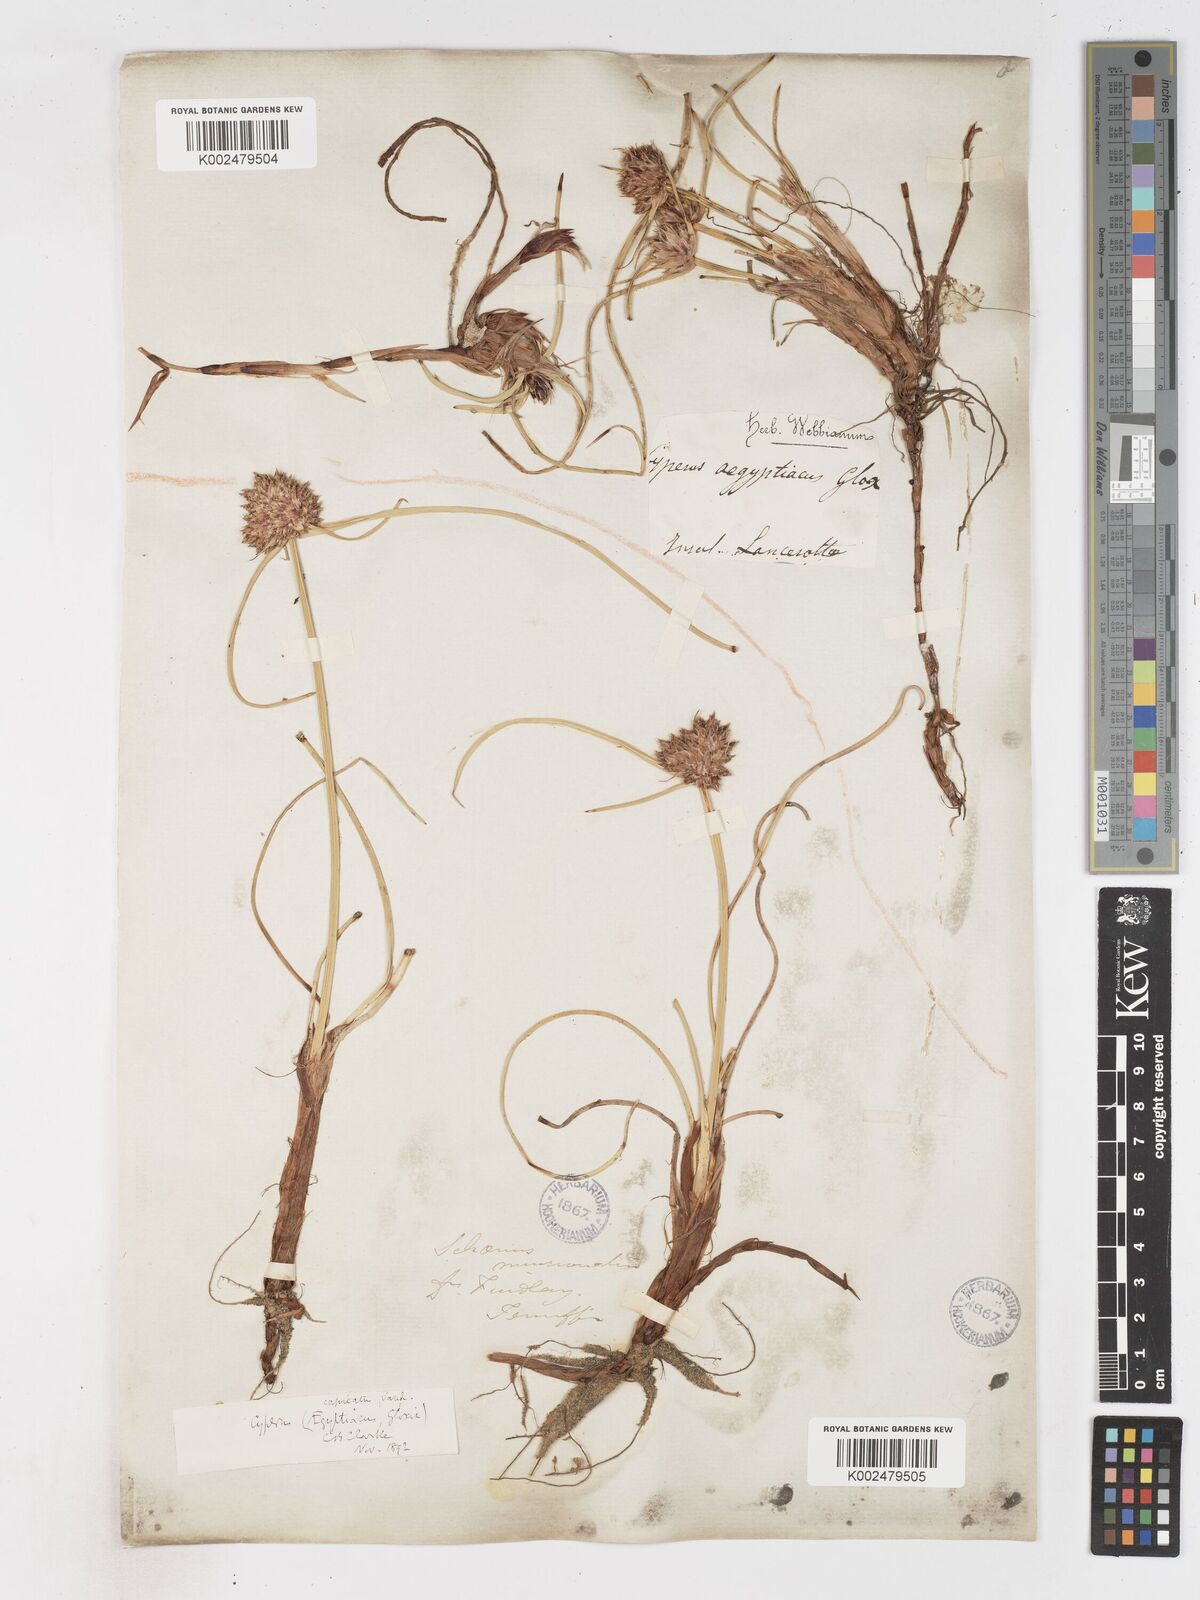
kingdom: Plantae
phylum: Tracheophyta
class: Liliopsida
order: Poales
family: Cyperaceae
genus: Cyperus
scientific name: Cyperus capitatus
